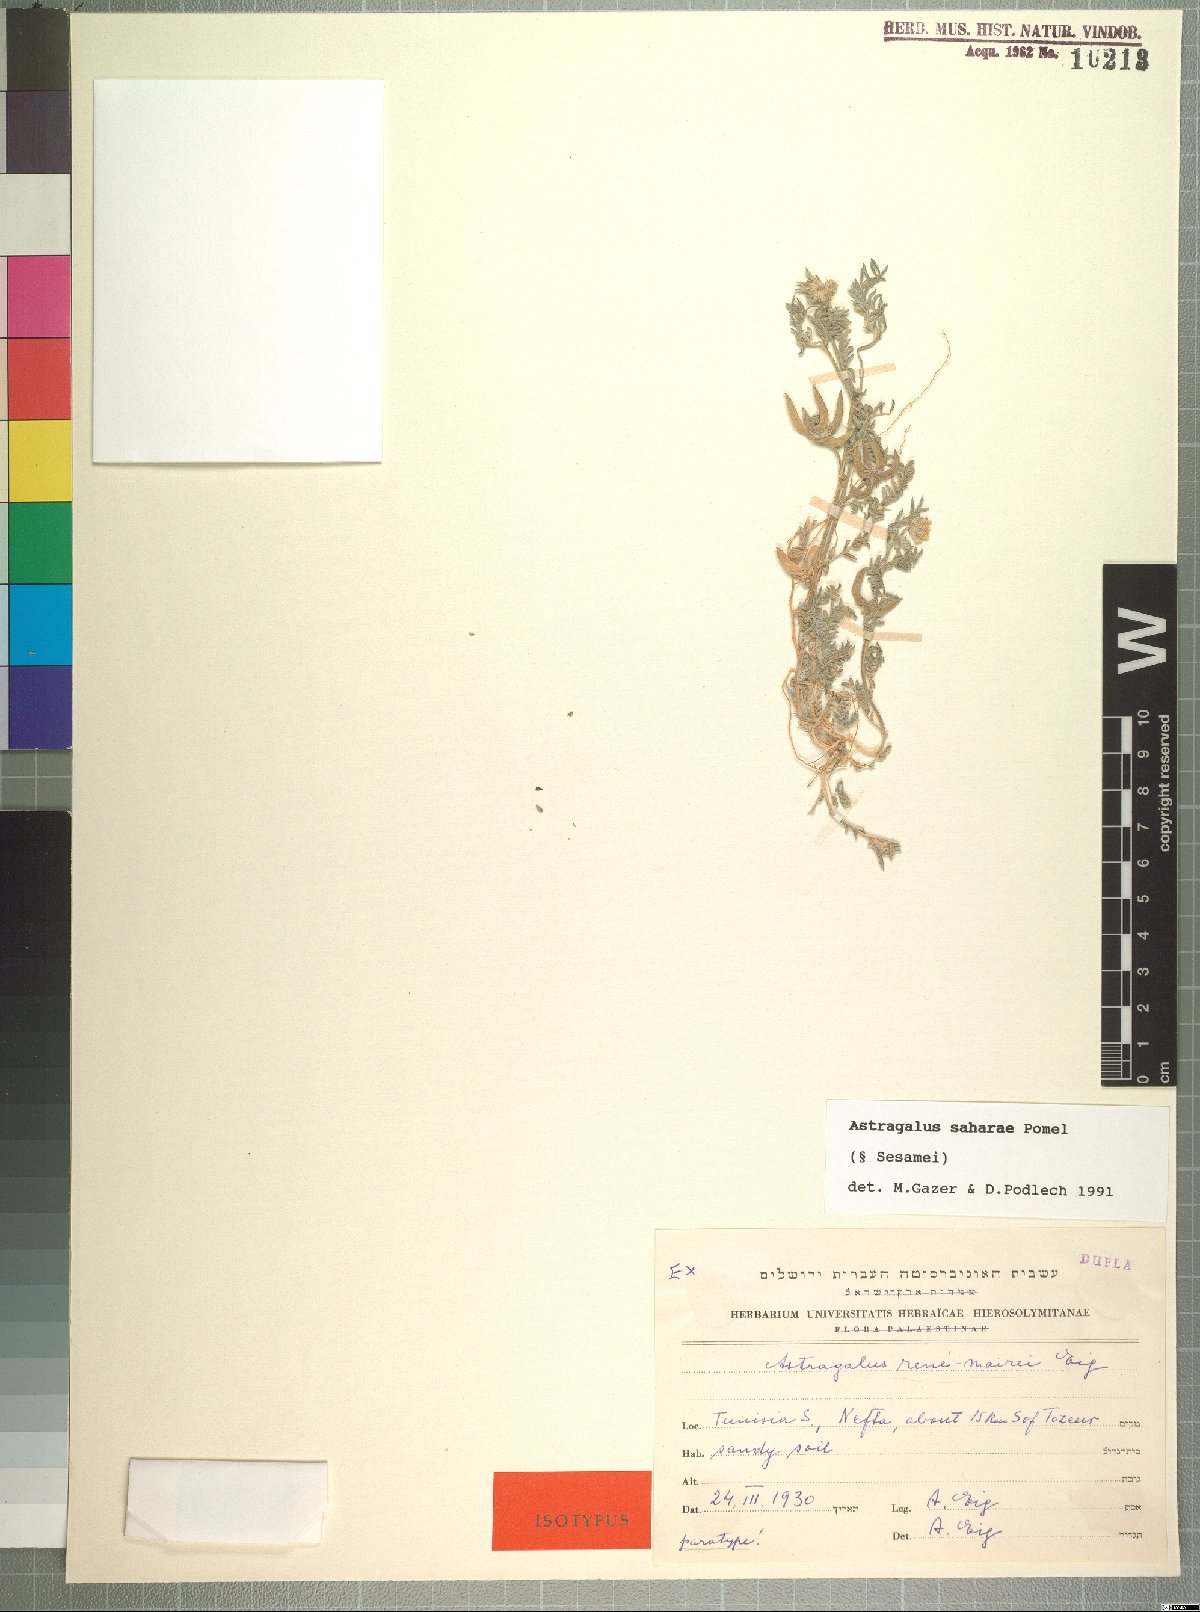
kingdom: Plantae
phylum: Tracheophyta
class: Magnoliopsida
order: Fabales
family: Fabaceae
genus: Astragalus
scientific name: Astragalus saharae
